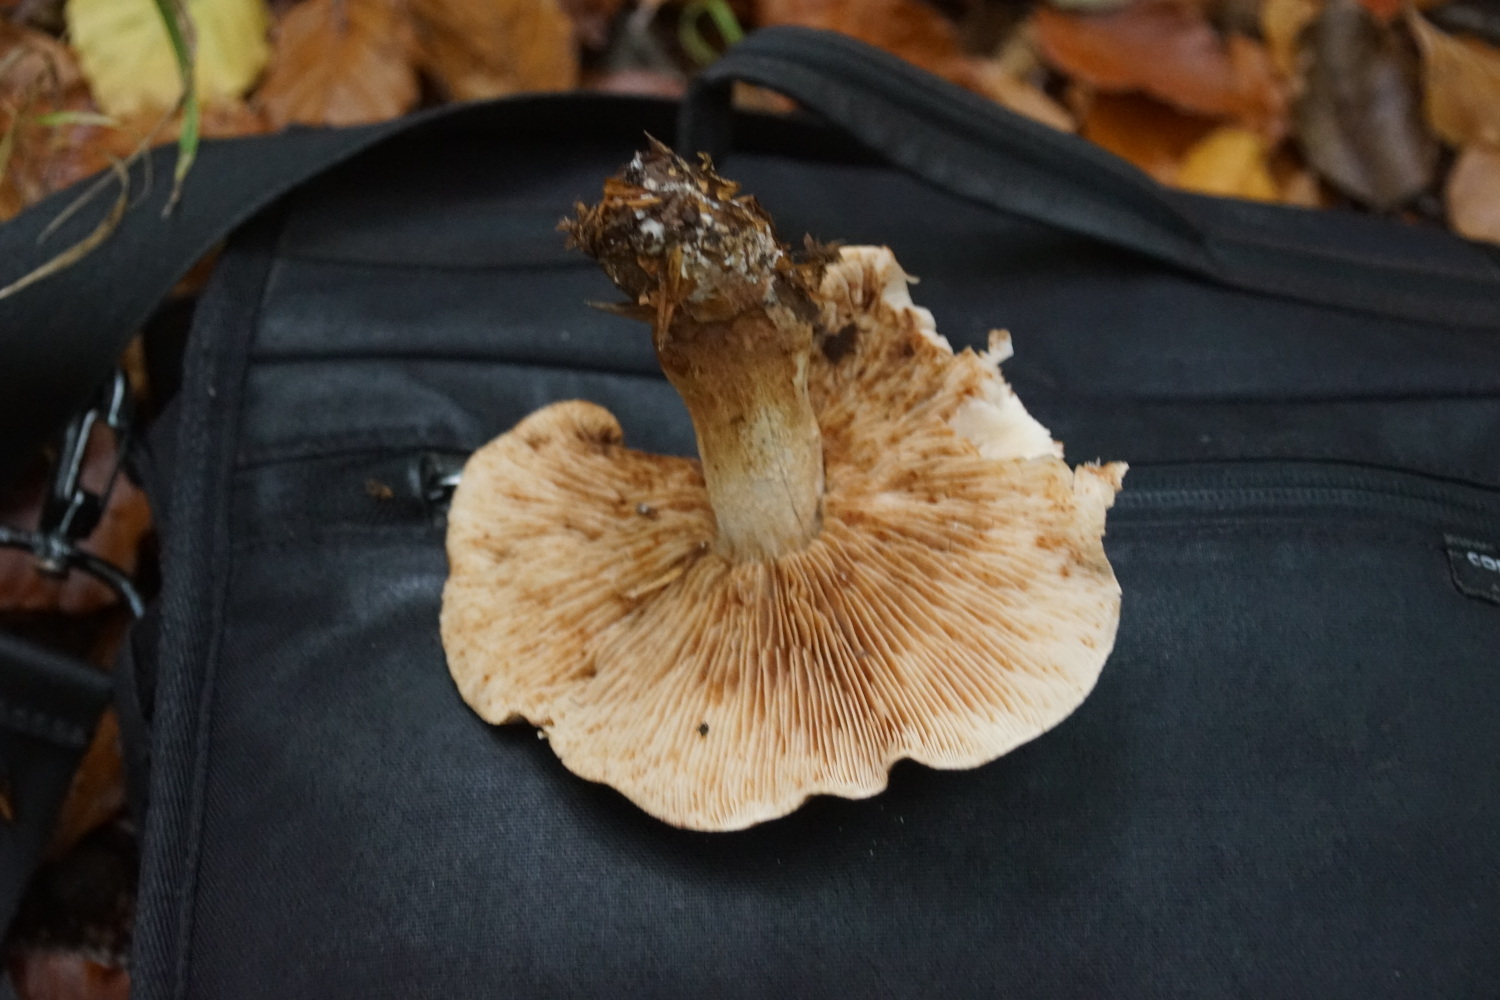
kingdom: Fungi
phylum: Basidiomycota
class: Agaricomycetes
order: Agaricales
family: Tricholomataceae
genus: Tricholoma
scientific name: Tricholoma ustale
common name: sveden ridderhat
